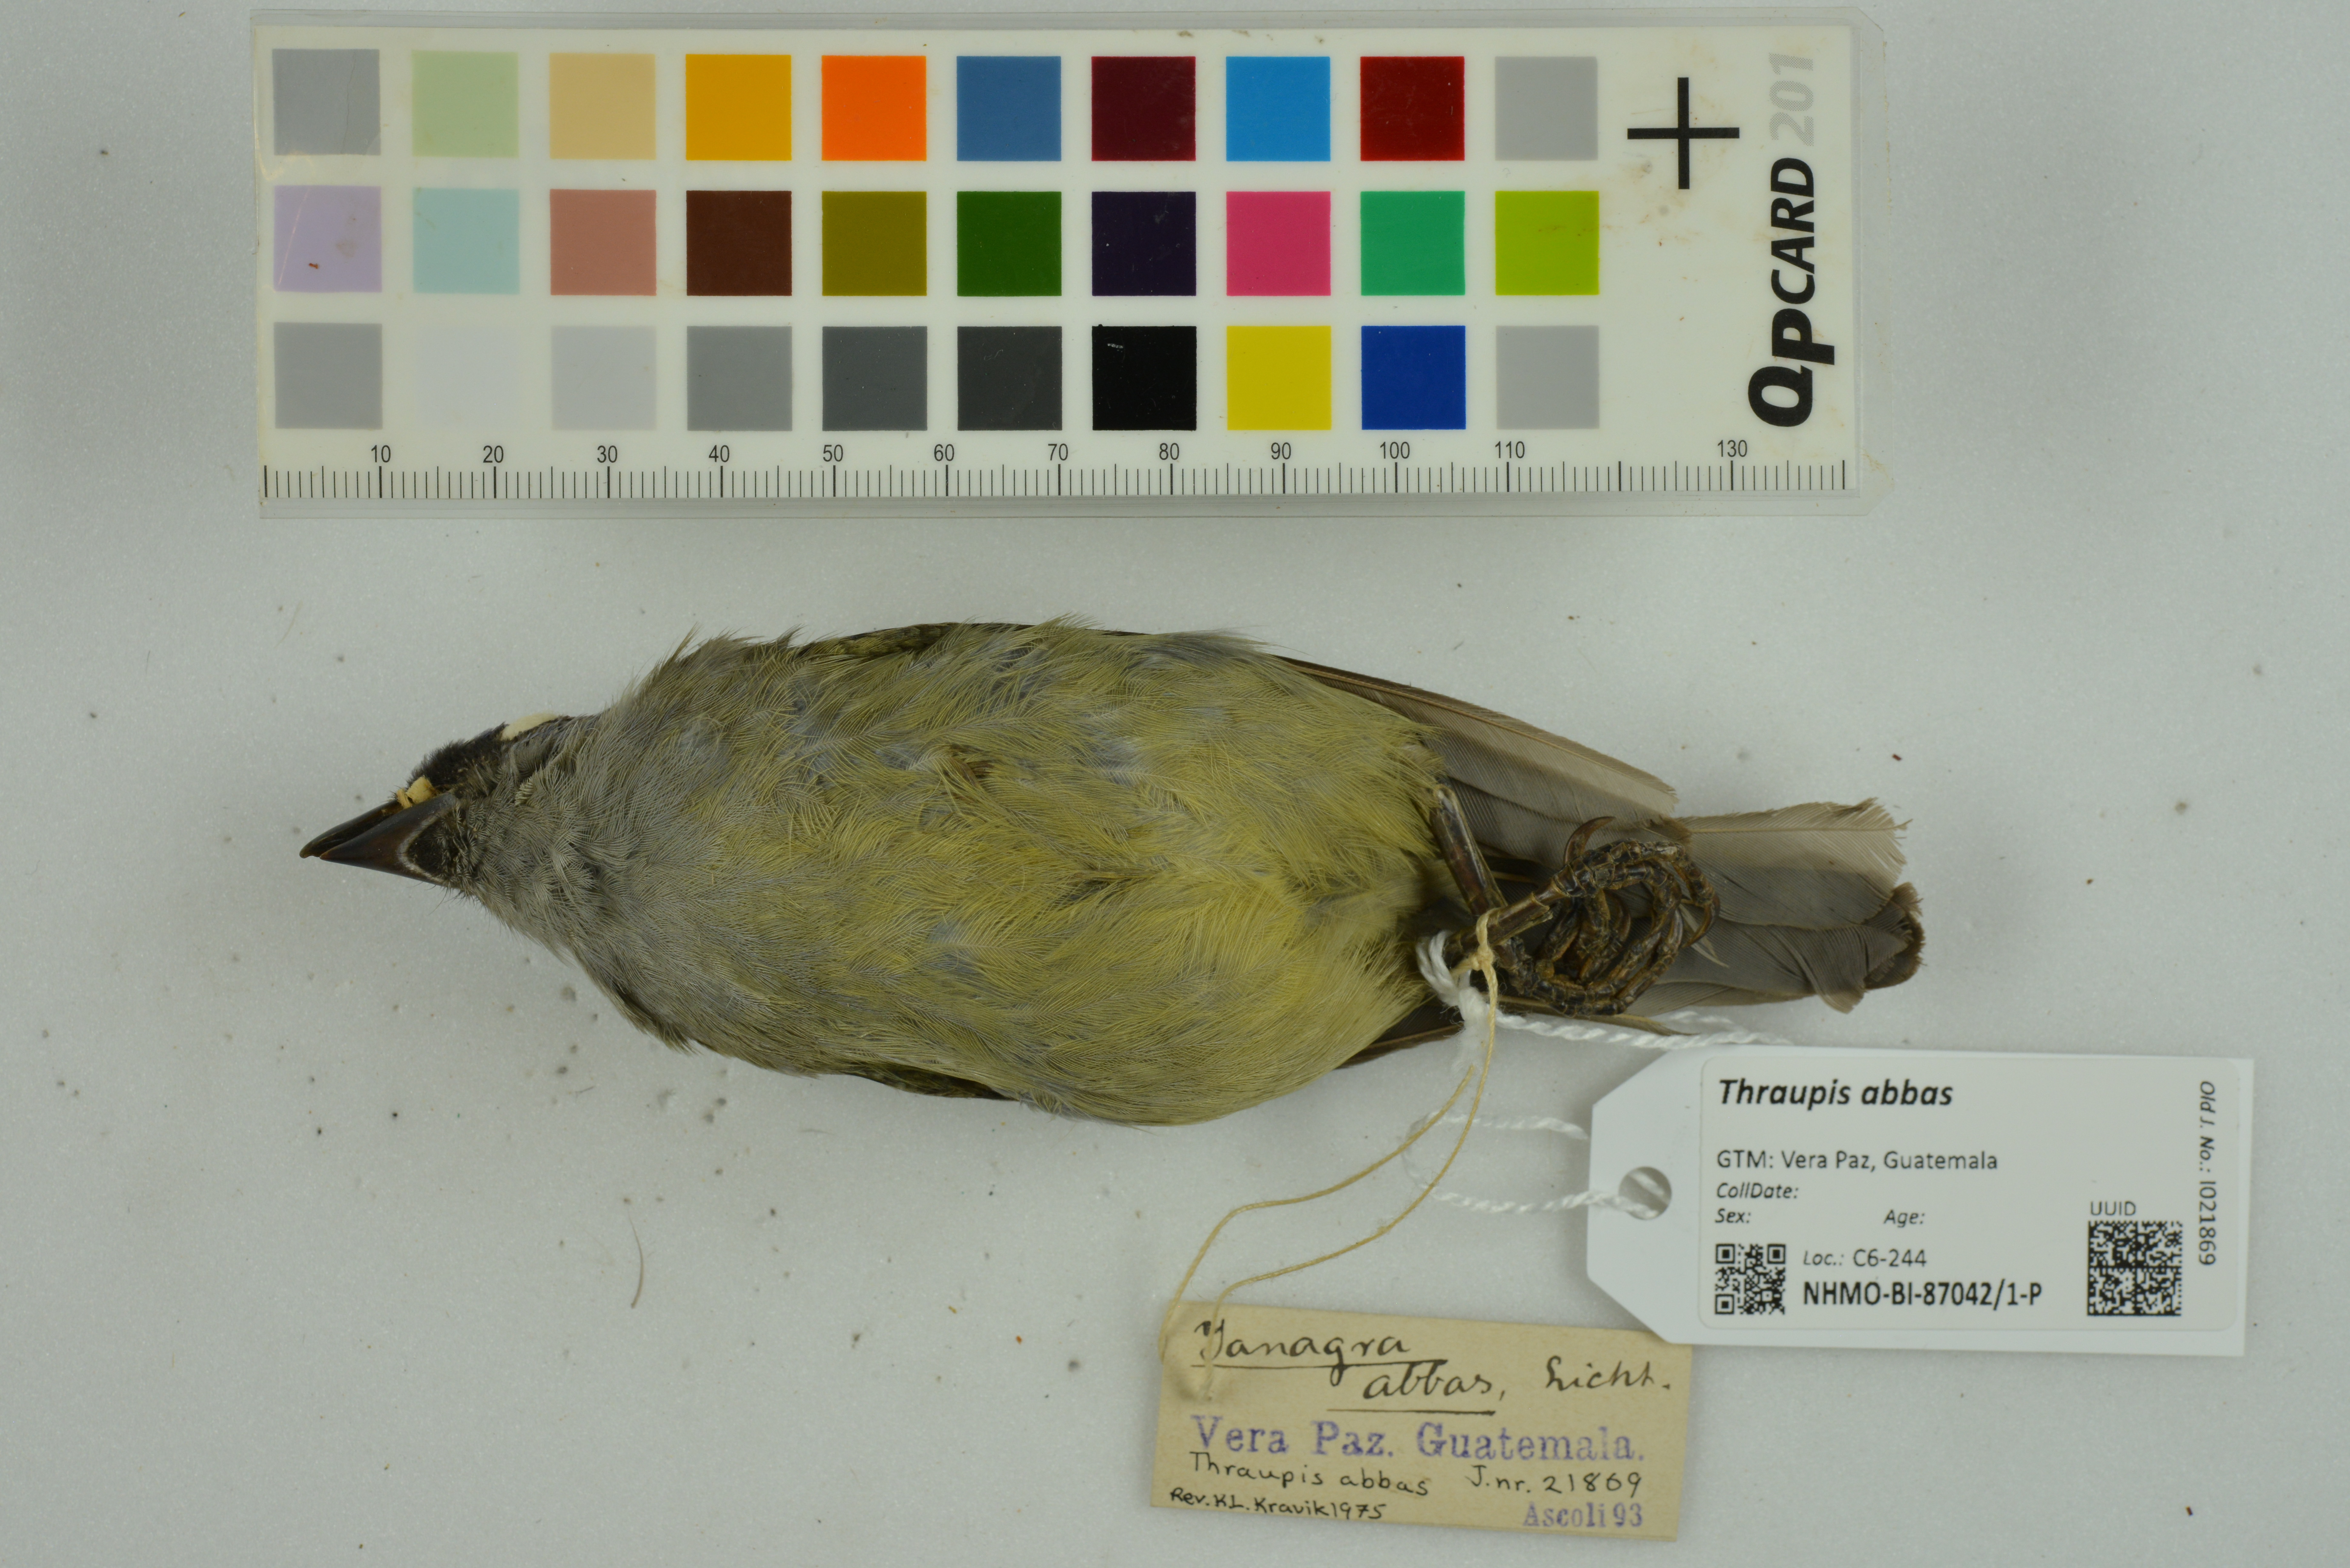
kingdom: Animalia
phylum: Chordata
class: Aves
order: Passeriformes
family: Thraupidae
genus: Thraupis
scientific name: Thraupis abbas
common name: Yellow-winged tanager
